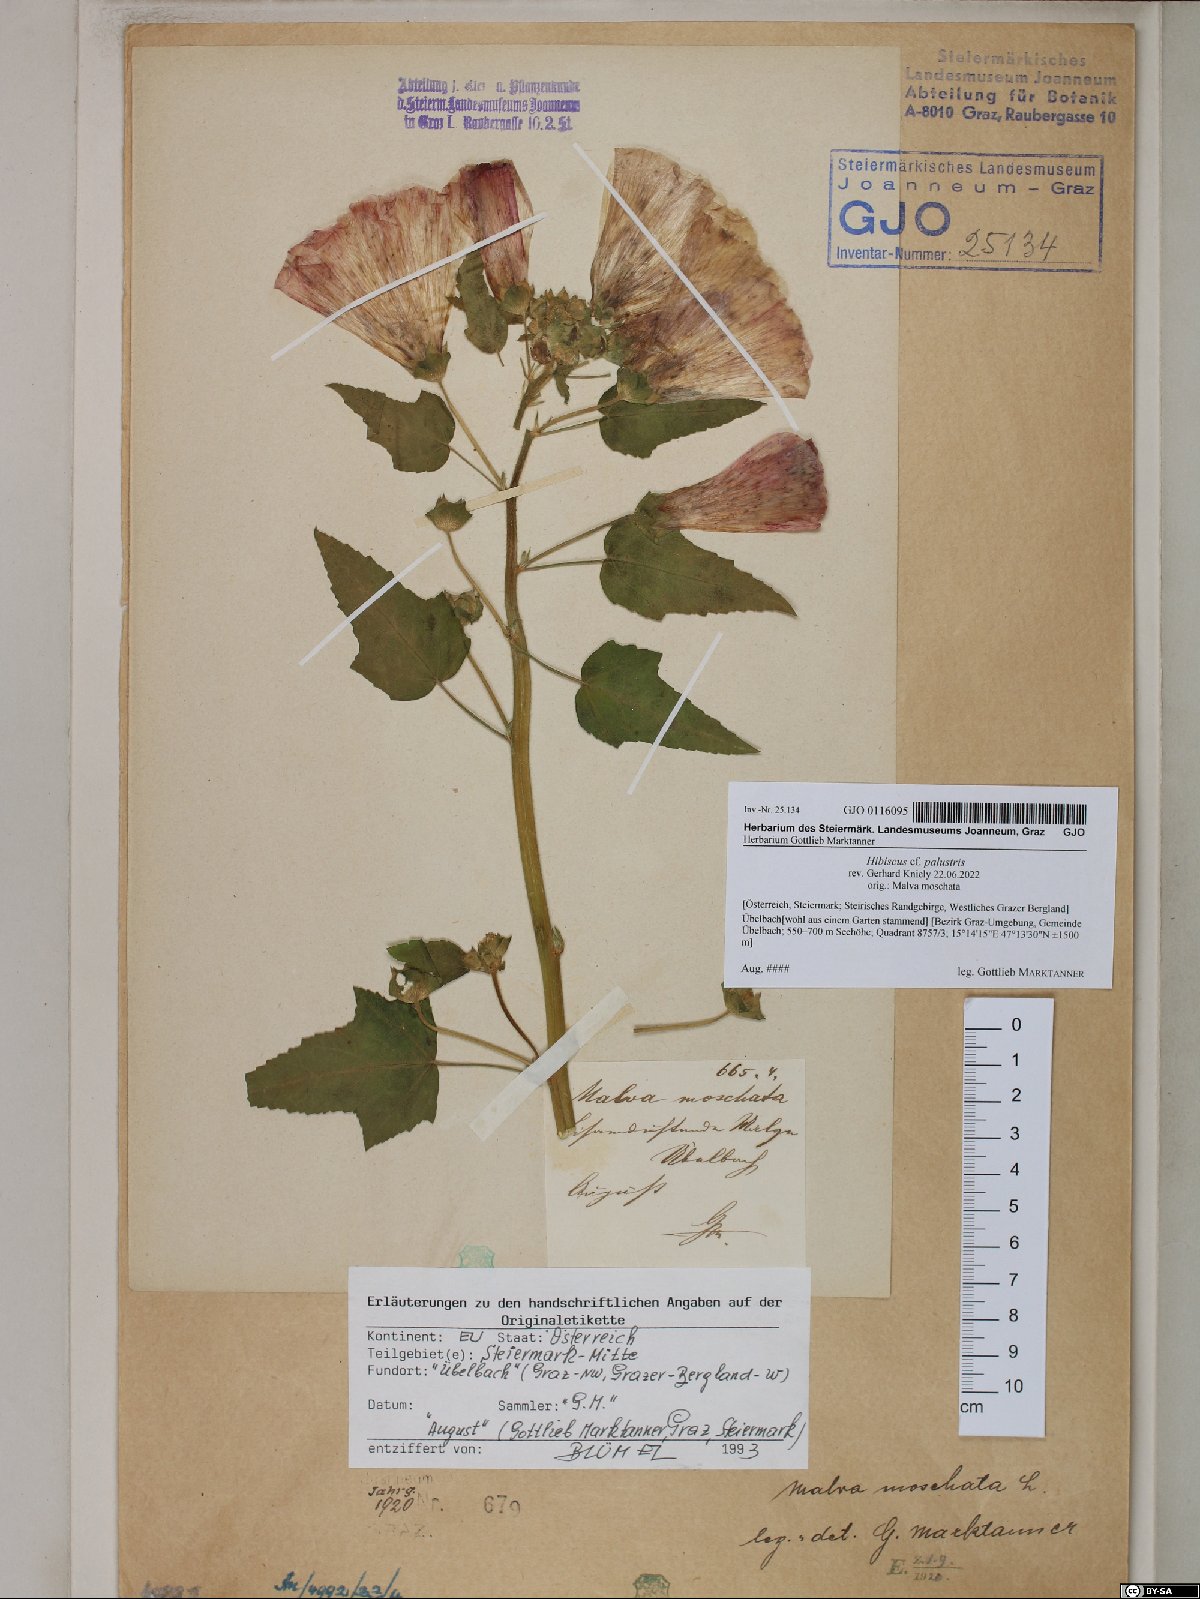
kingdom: Plantae
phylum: Tracheophyta
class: Magnoliopsida
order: Malvales
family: Malvaceae
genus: Hibiscus
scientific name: Hibiscus moscheutos
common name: Common rose-mallow
